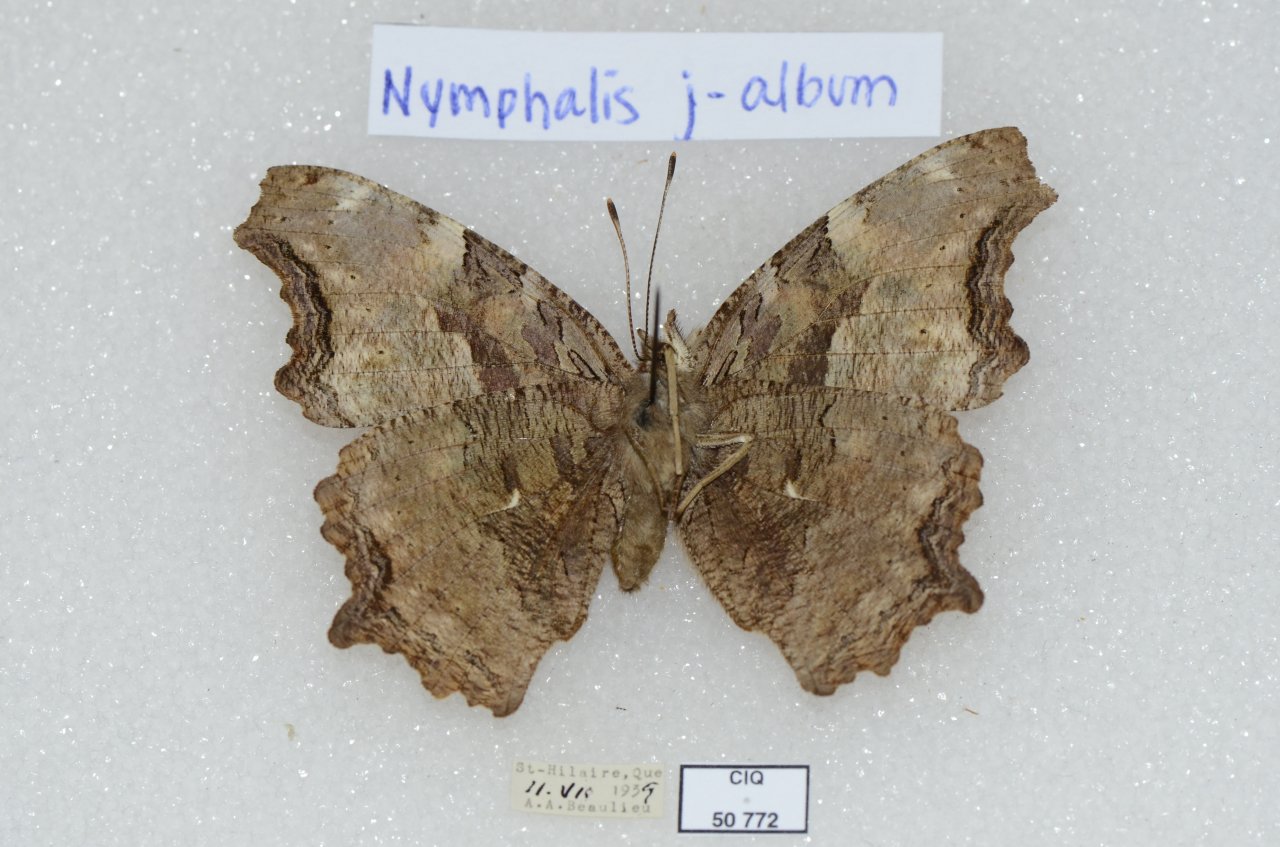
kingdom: Animalia
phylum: Arthropoda
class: Insecta
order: Lepidoptera
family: Nymphalidae
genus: Polygonia
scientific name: Polygonia vaualbum
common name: Compton Tortoiseshell
